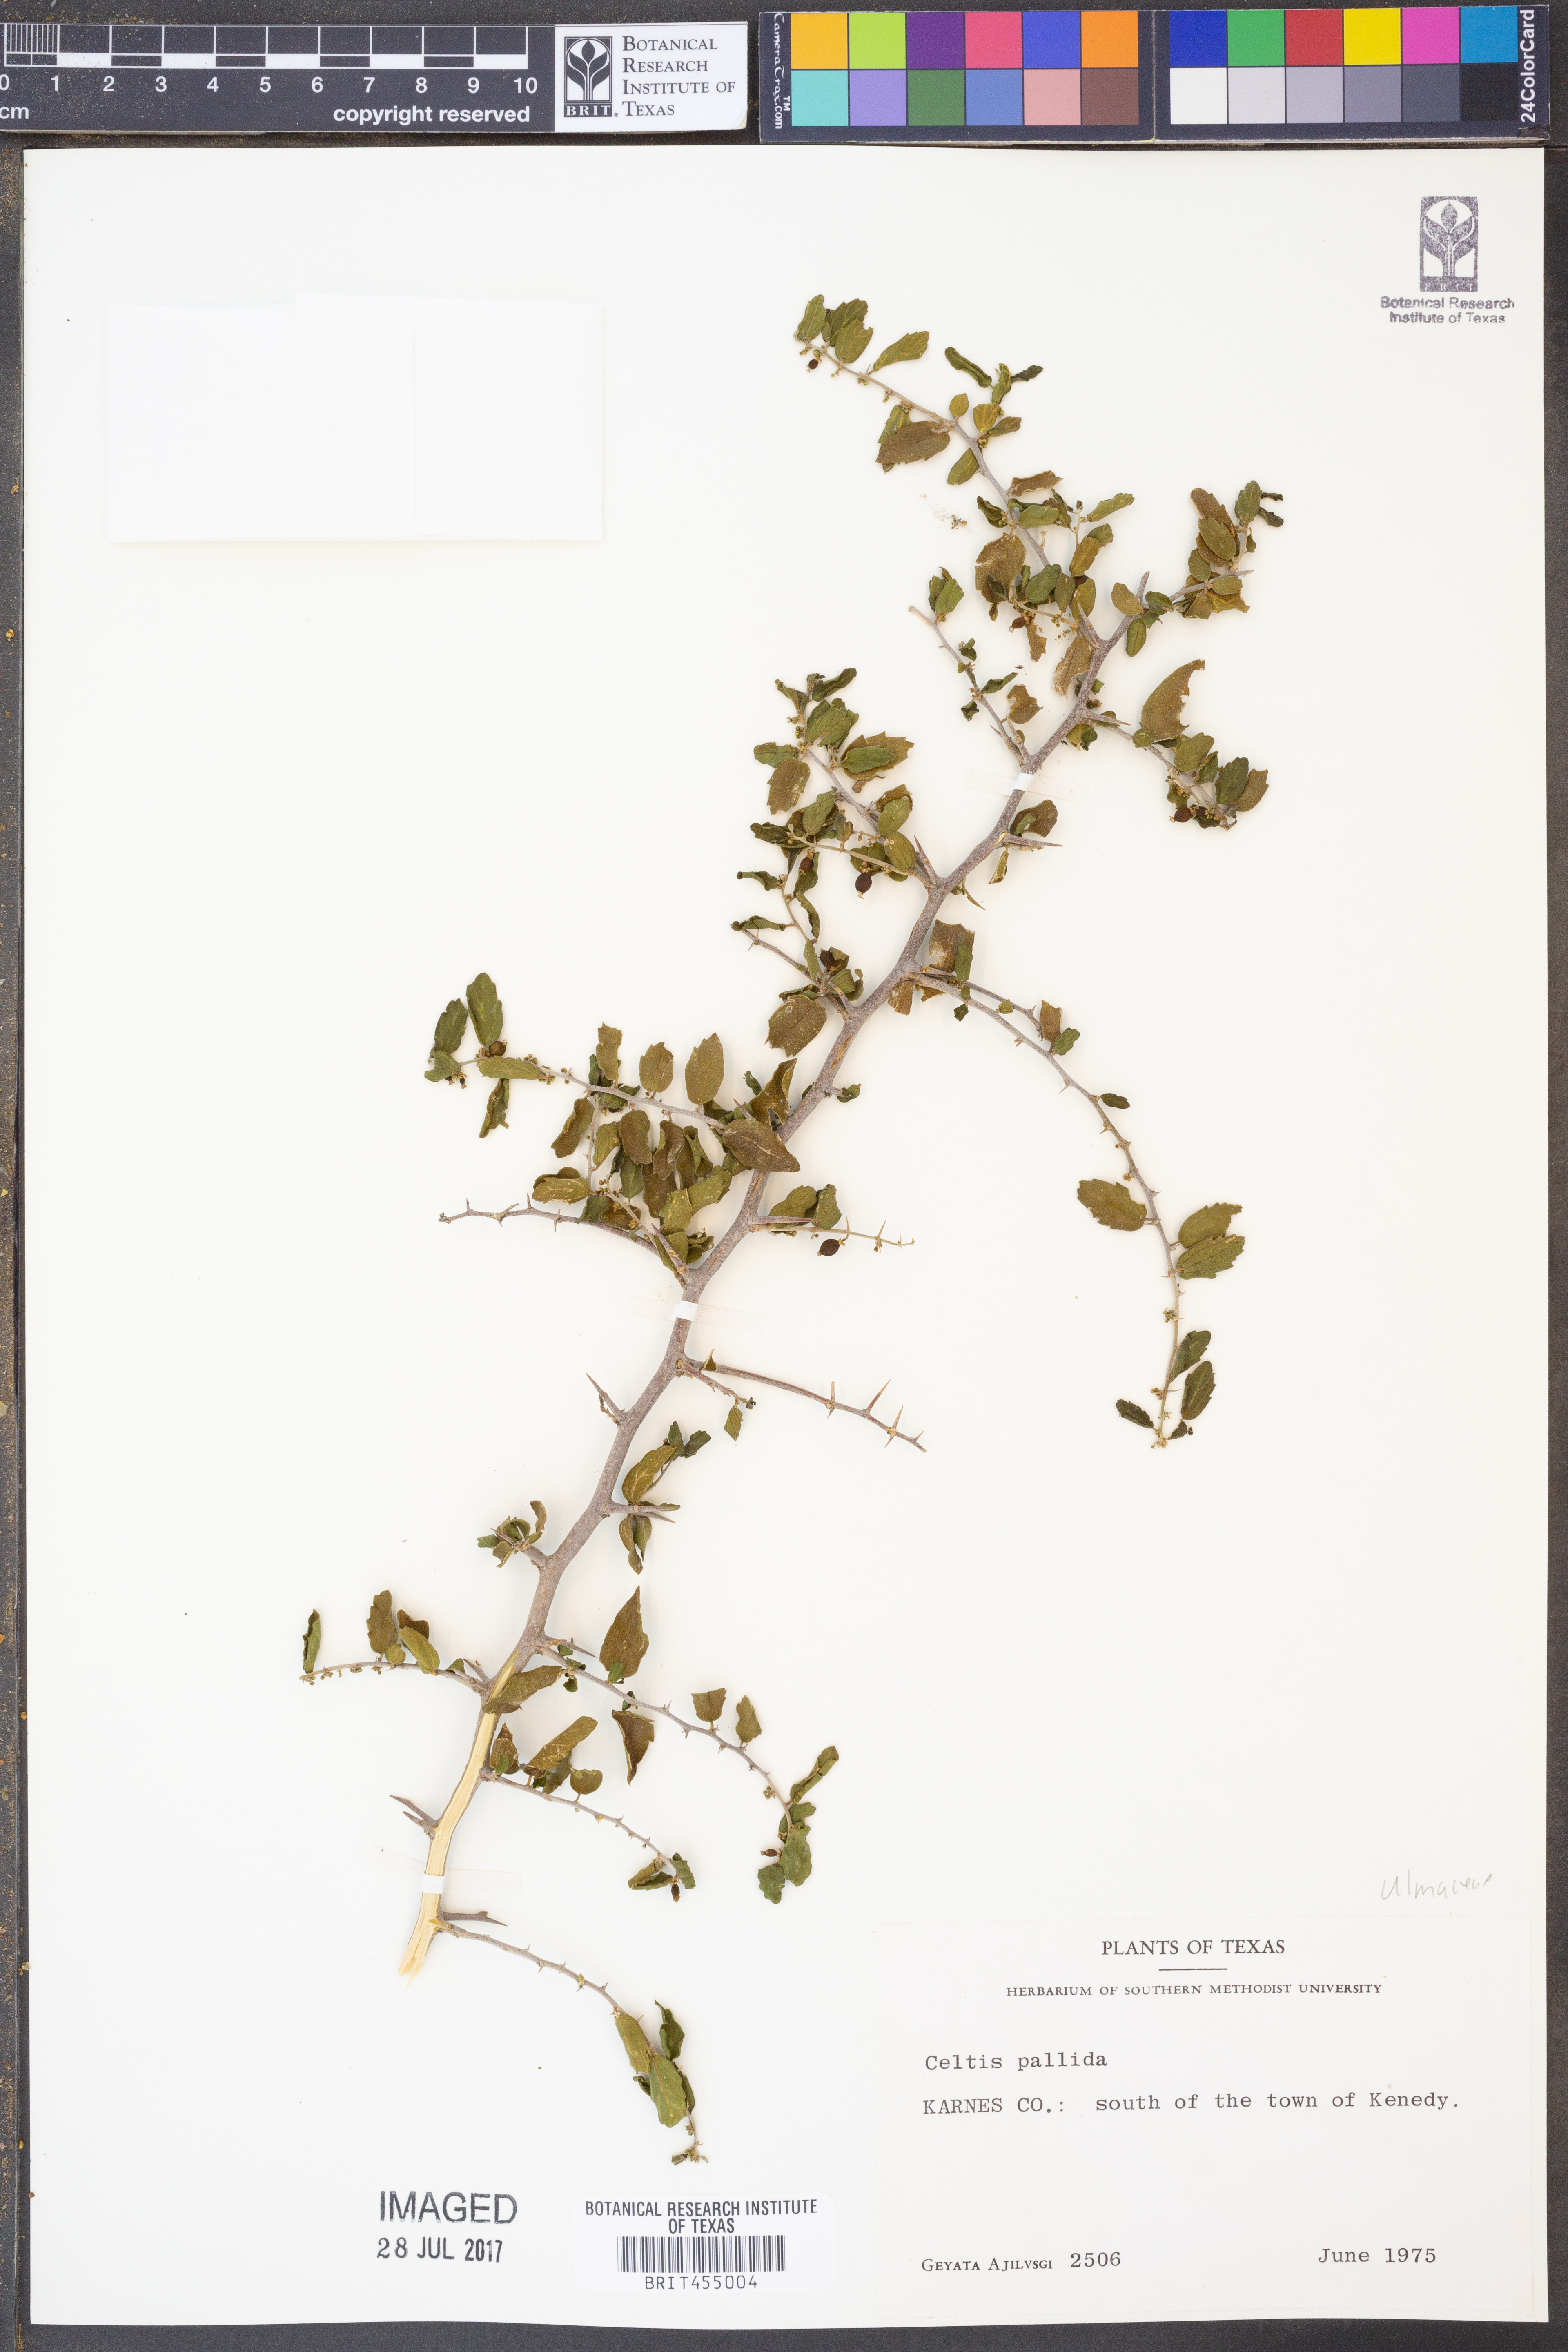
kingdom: Plantae
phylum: Tracheophyta
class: Magnoliopsida
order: Rosales
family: Cannabaceae
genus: Celtis
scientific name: Celtis pallida
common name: Desert hackberry
